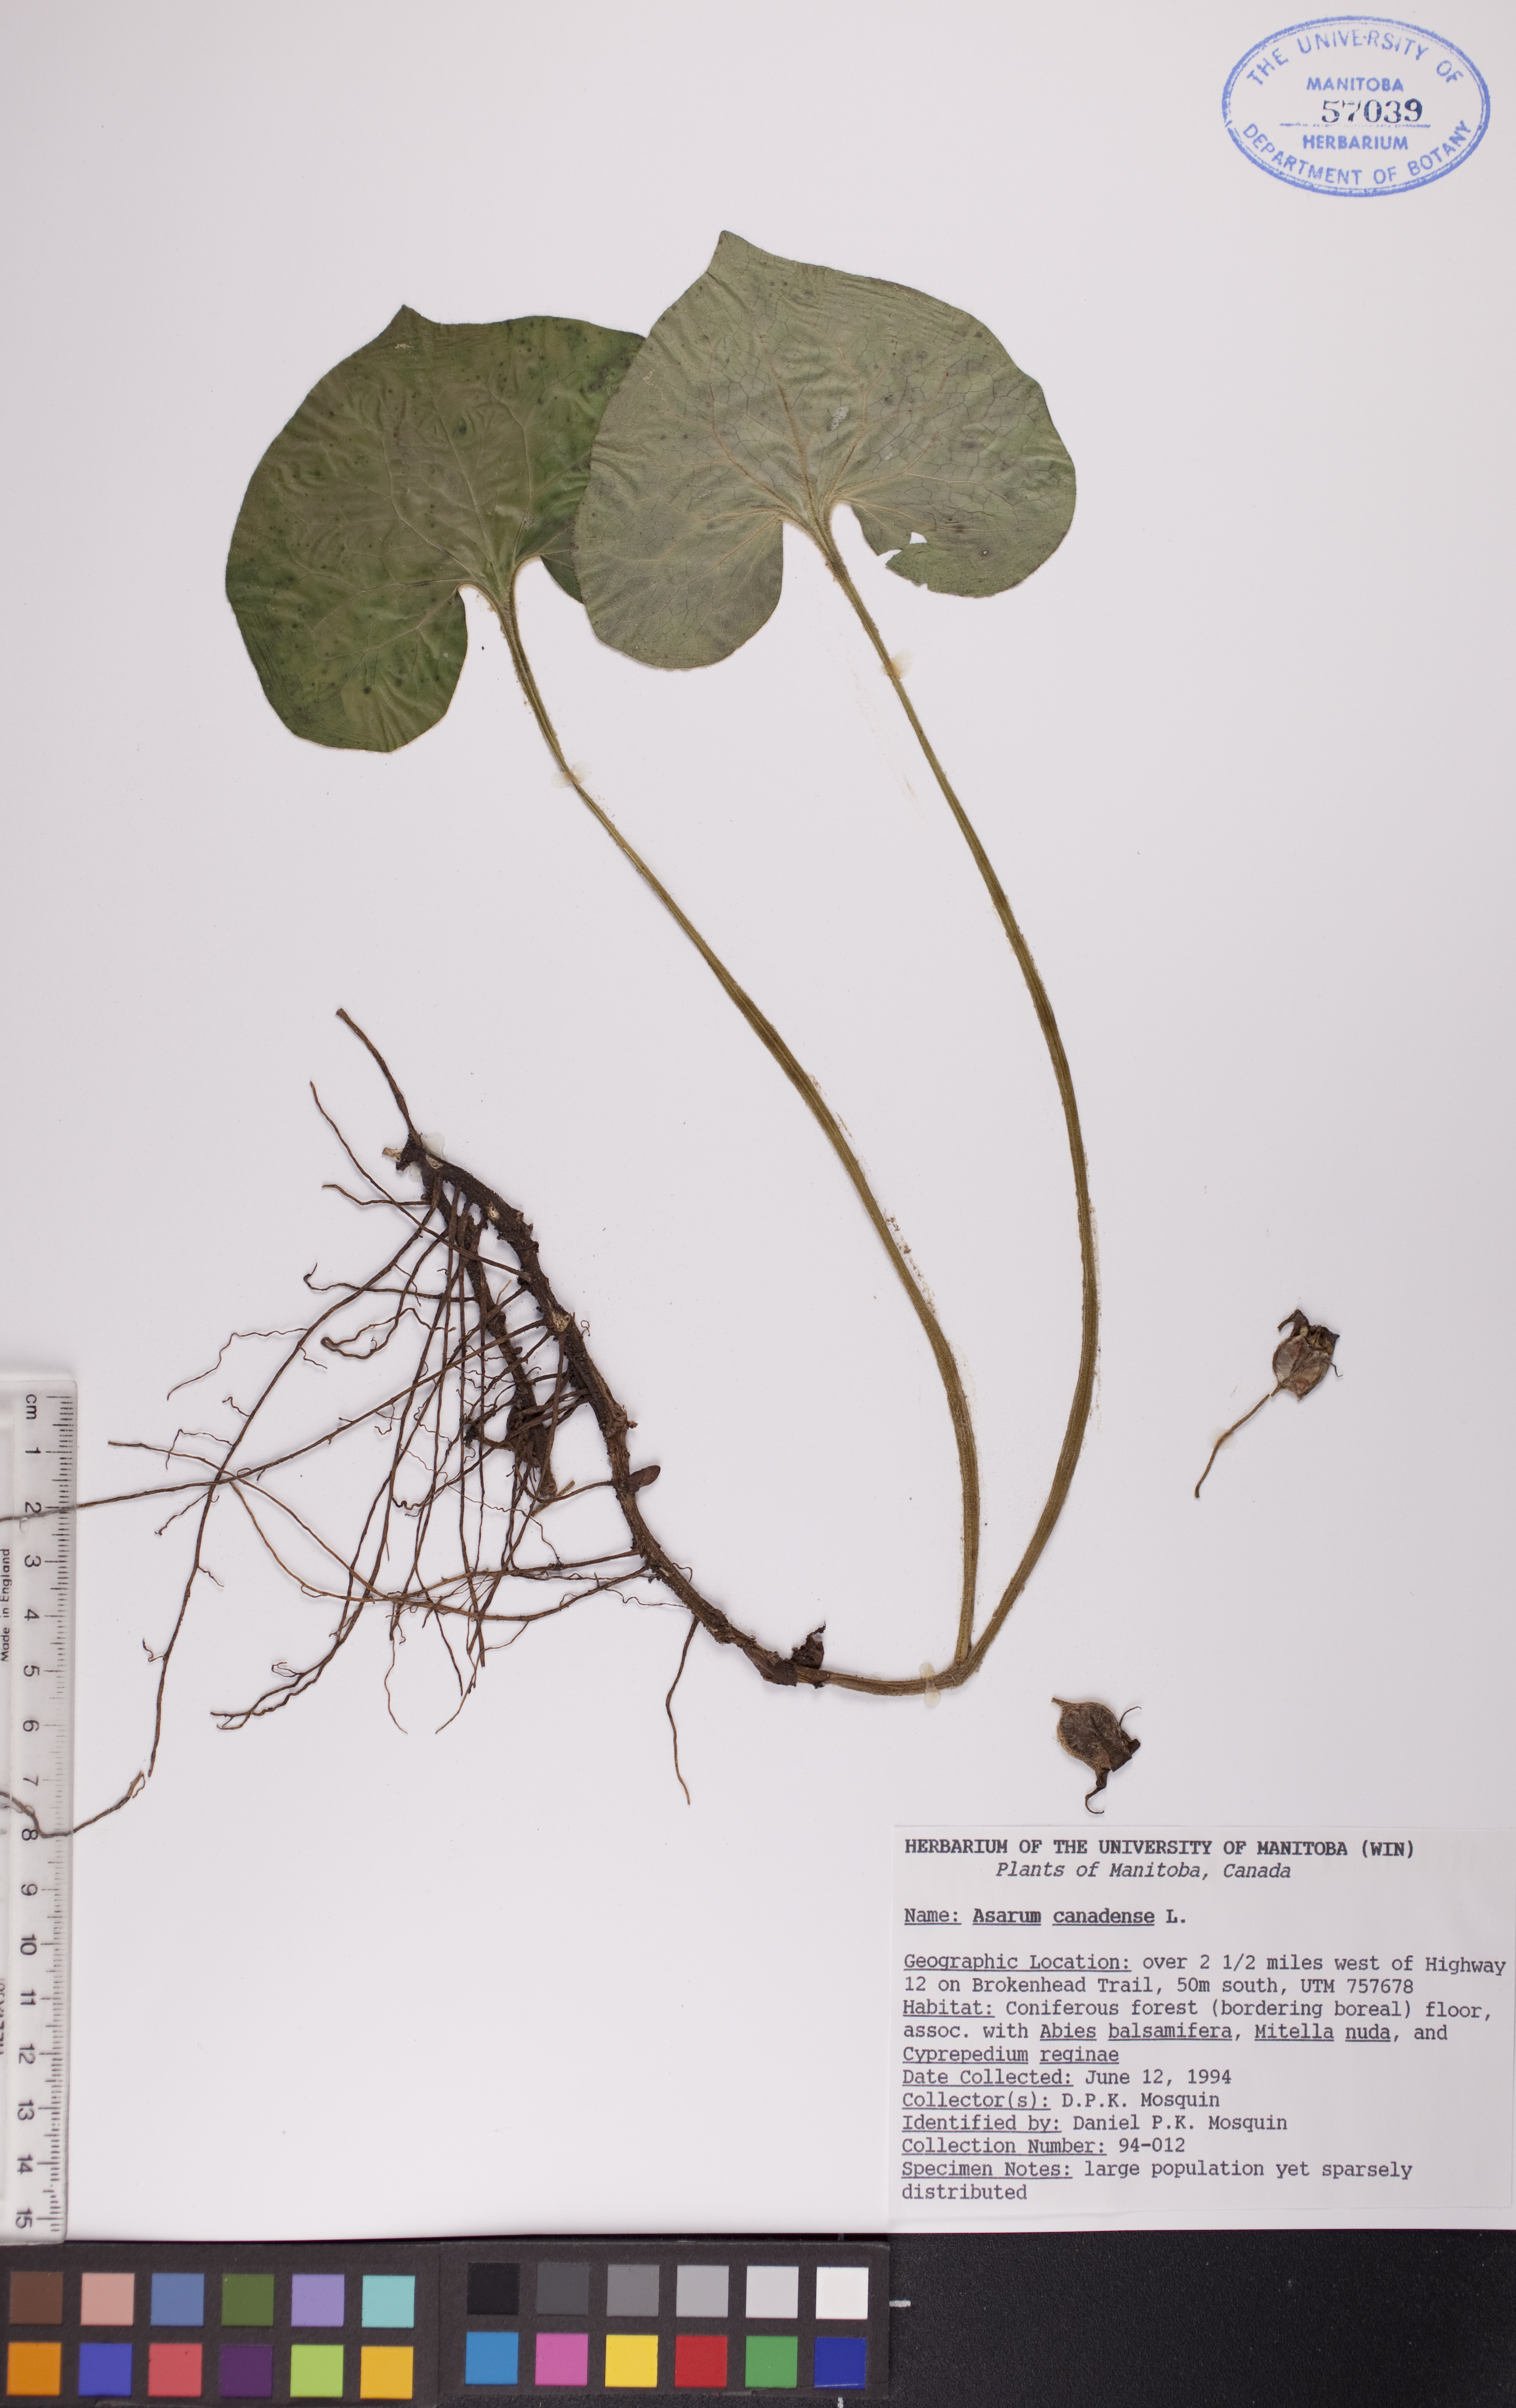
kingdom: Plantae
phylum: Tracheophyta
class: Magnoliopsida
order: Piperales
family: Aristolochiaceae
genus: Asarum
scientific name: Asarum canadense
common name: Wild ginger
